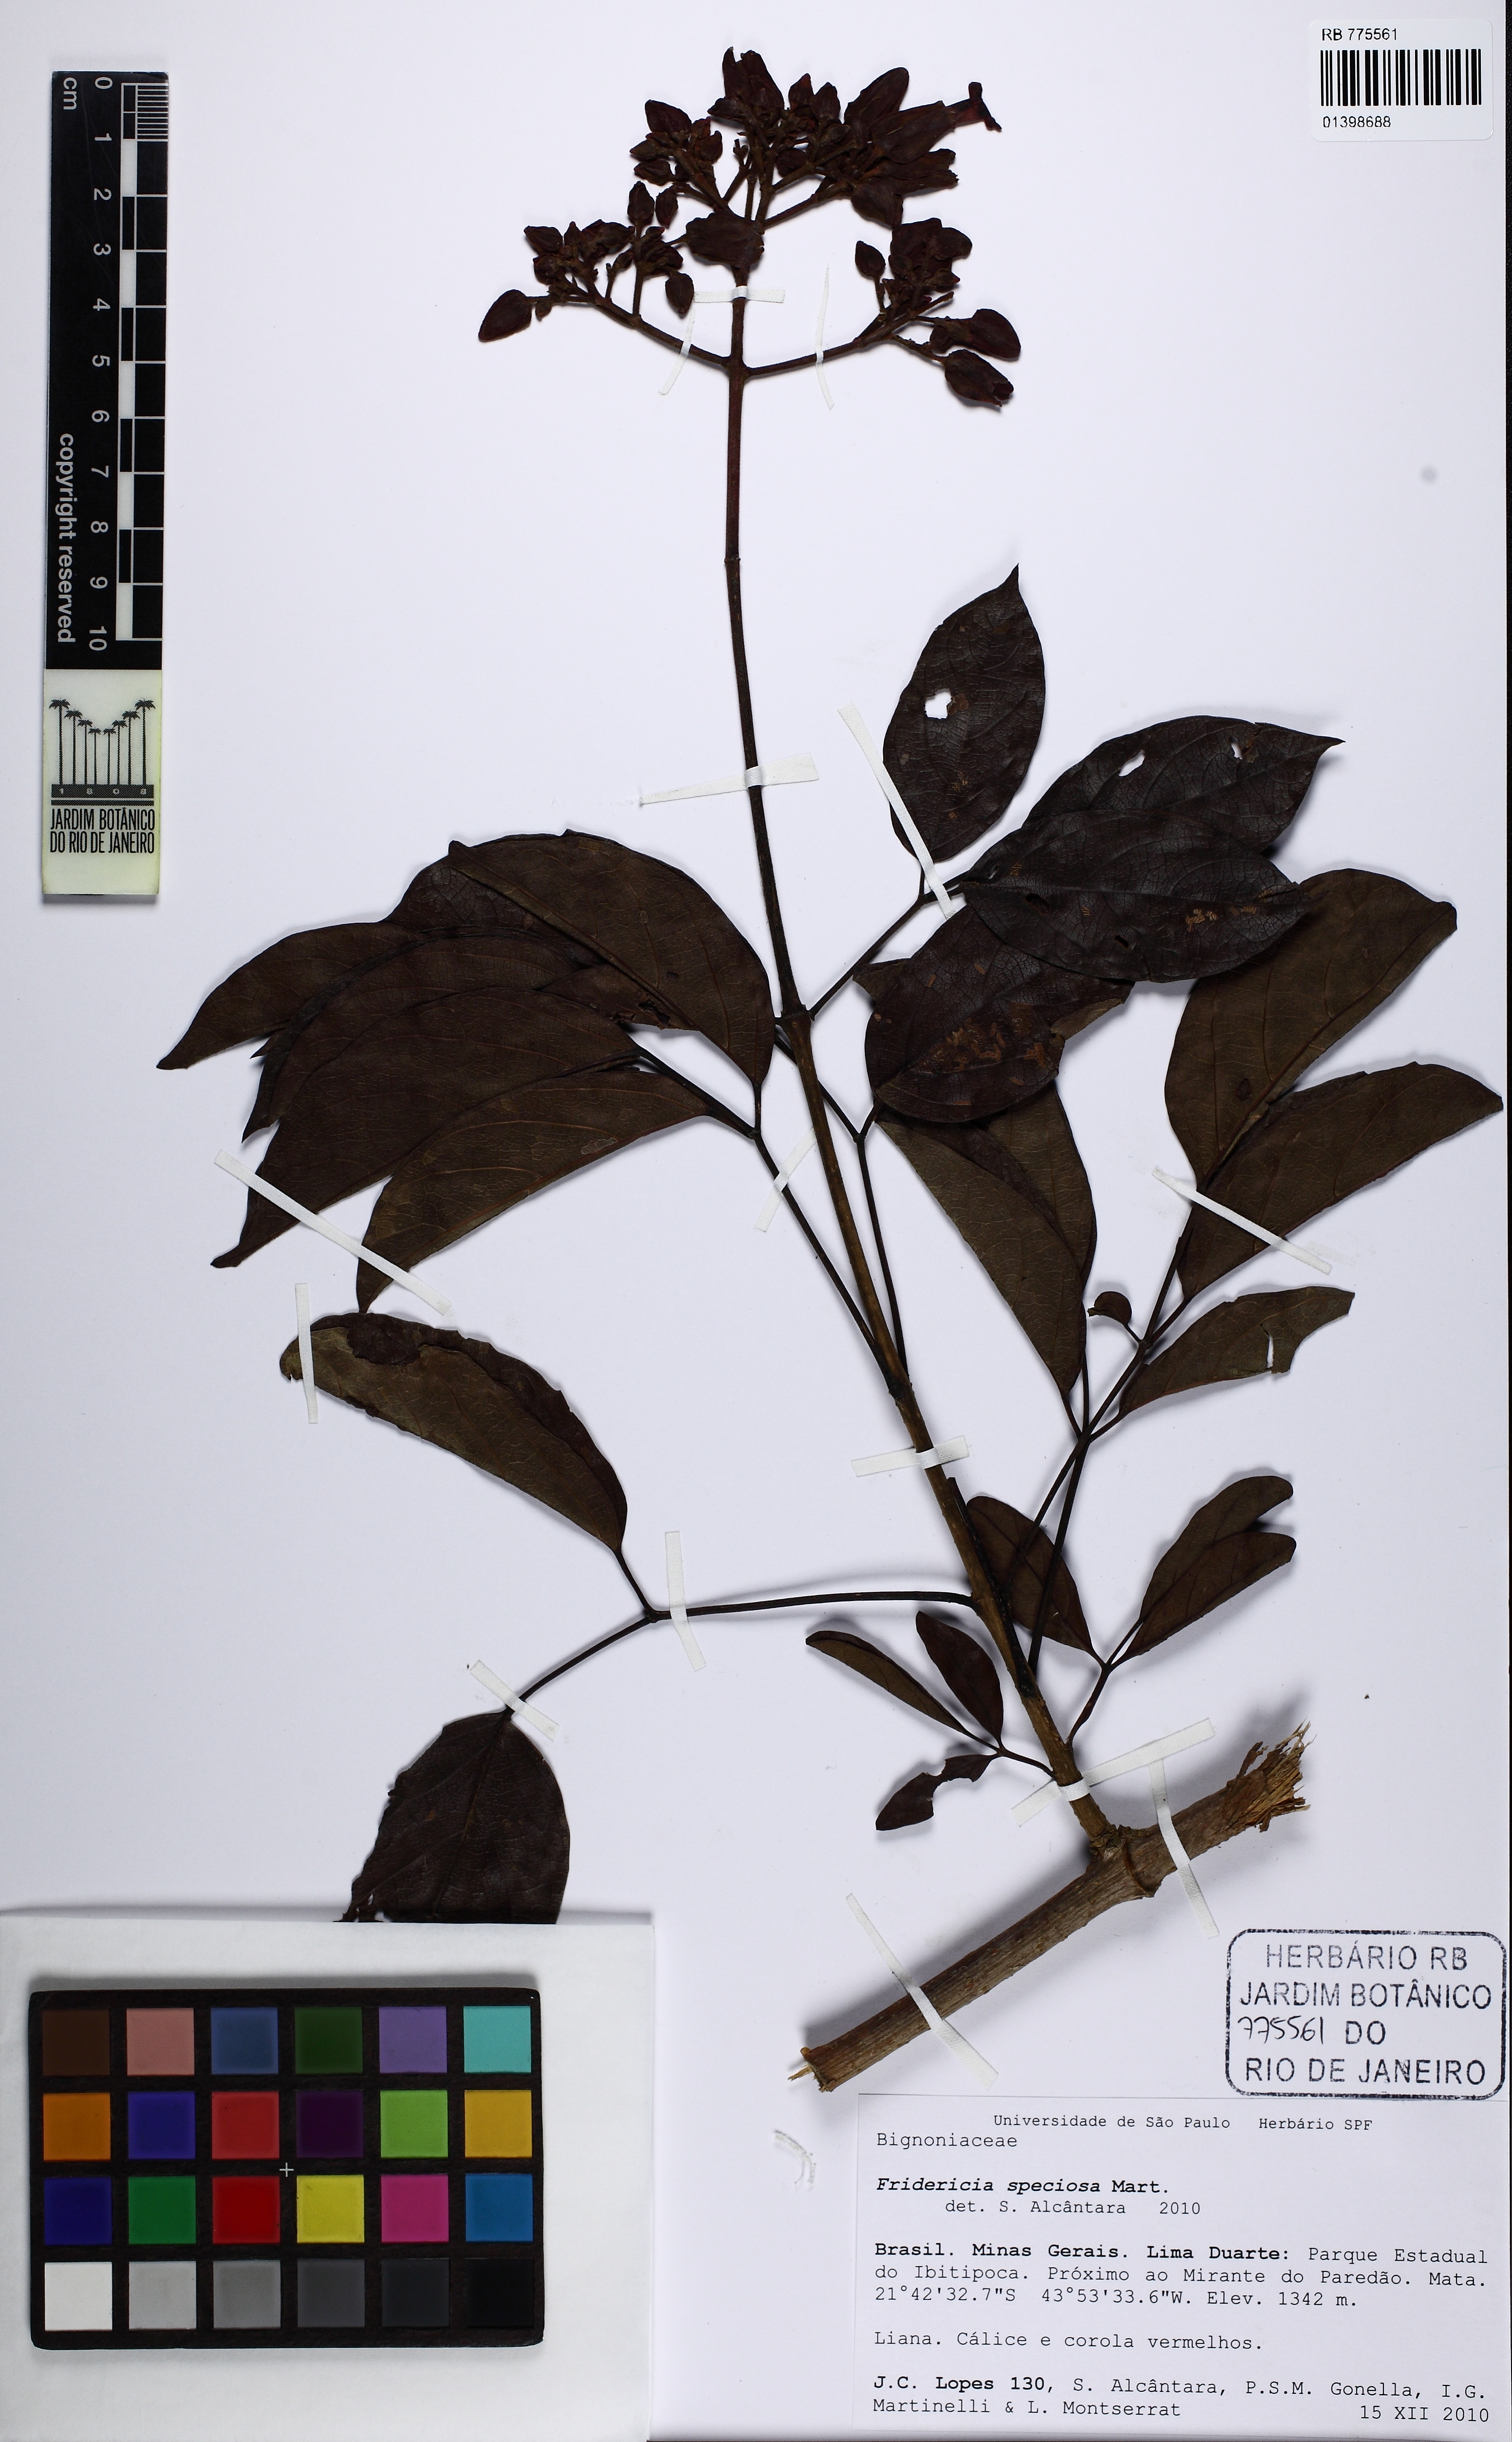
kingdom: Plantae
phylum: Tracheophyta
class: Magnoliopsida
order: Lamiales
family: Bignoniaceae
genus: Fridericia
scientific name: Fridericia speciosa
